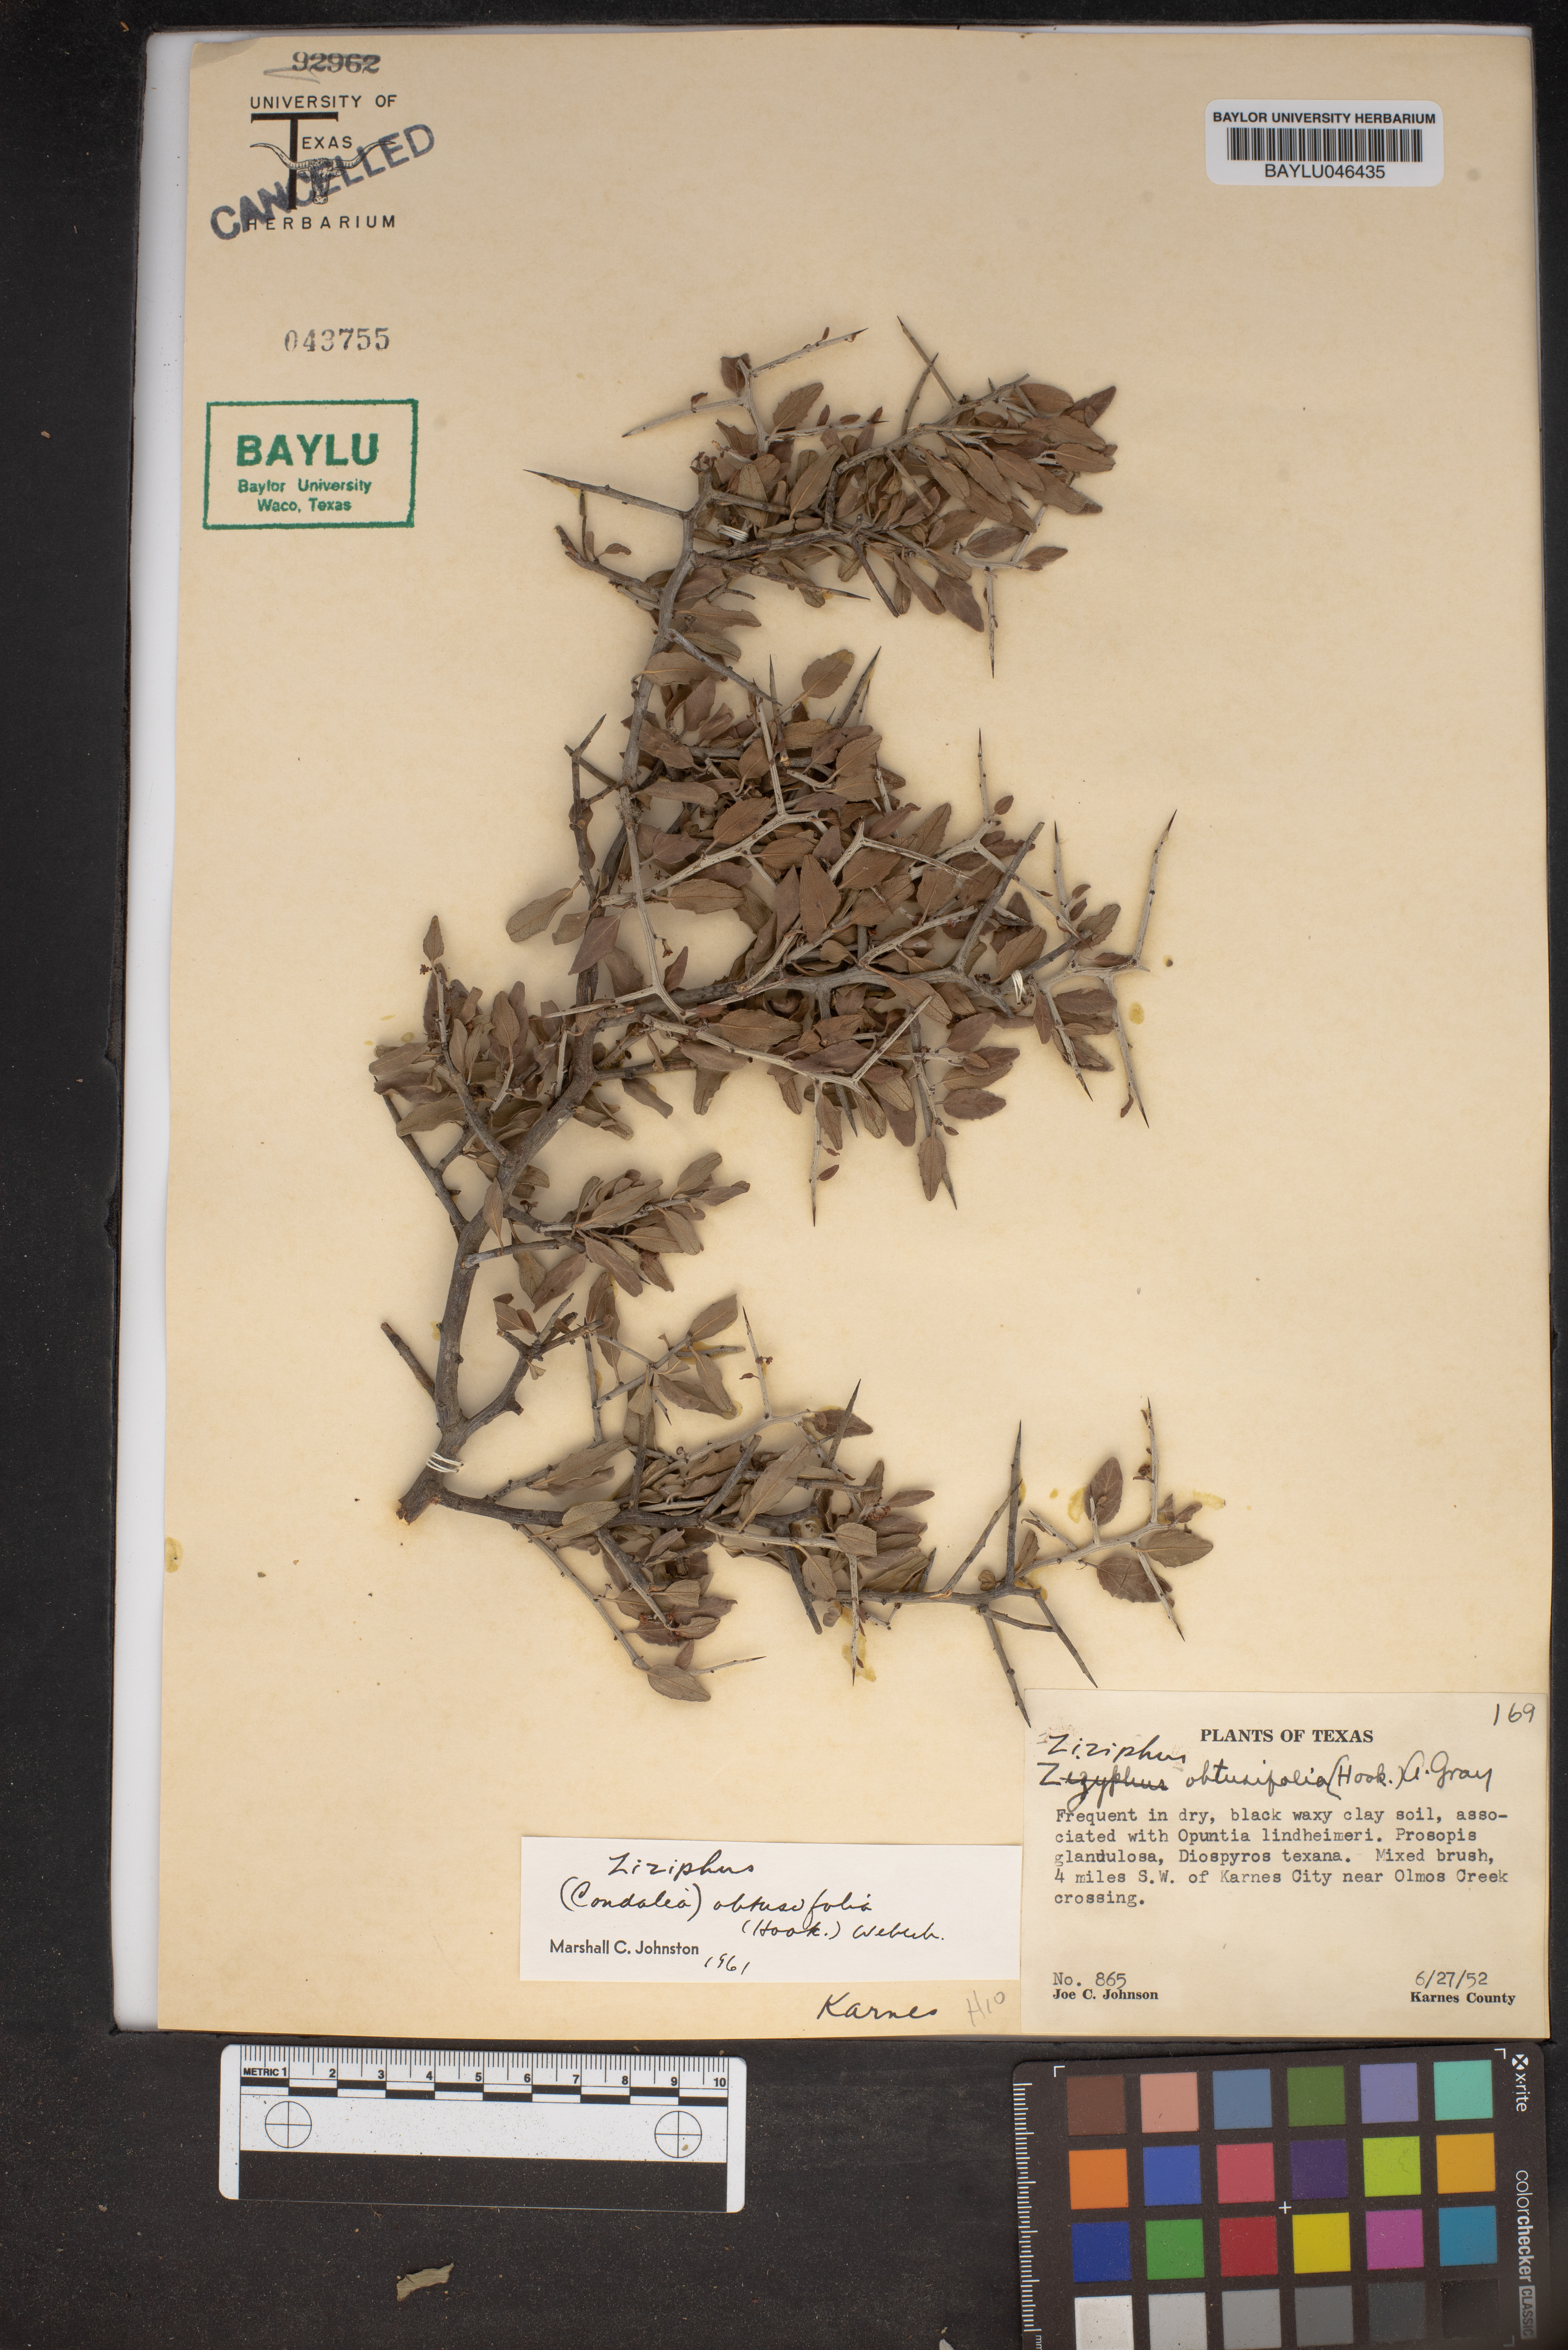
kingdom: Plantae
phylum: Tracheophyta
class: Magnoliopsida
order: Rosales
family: Rhamnaceae
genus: Sarcomphalus
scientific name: Sarcomphalus obtusifolius
